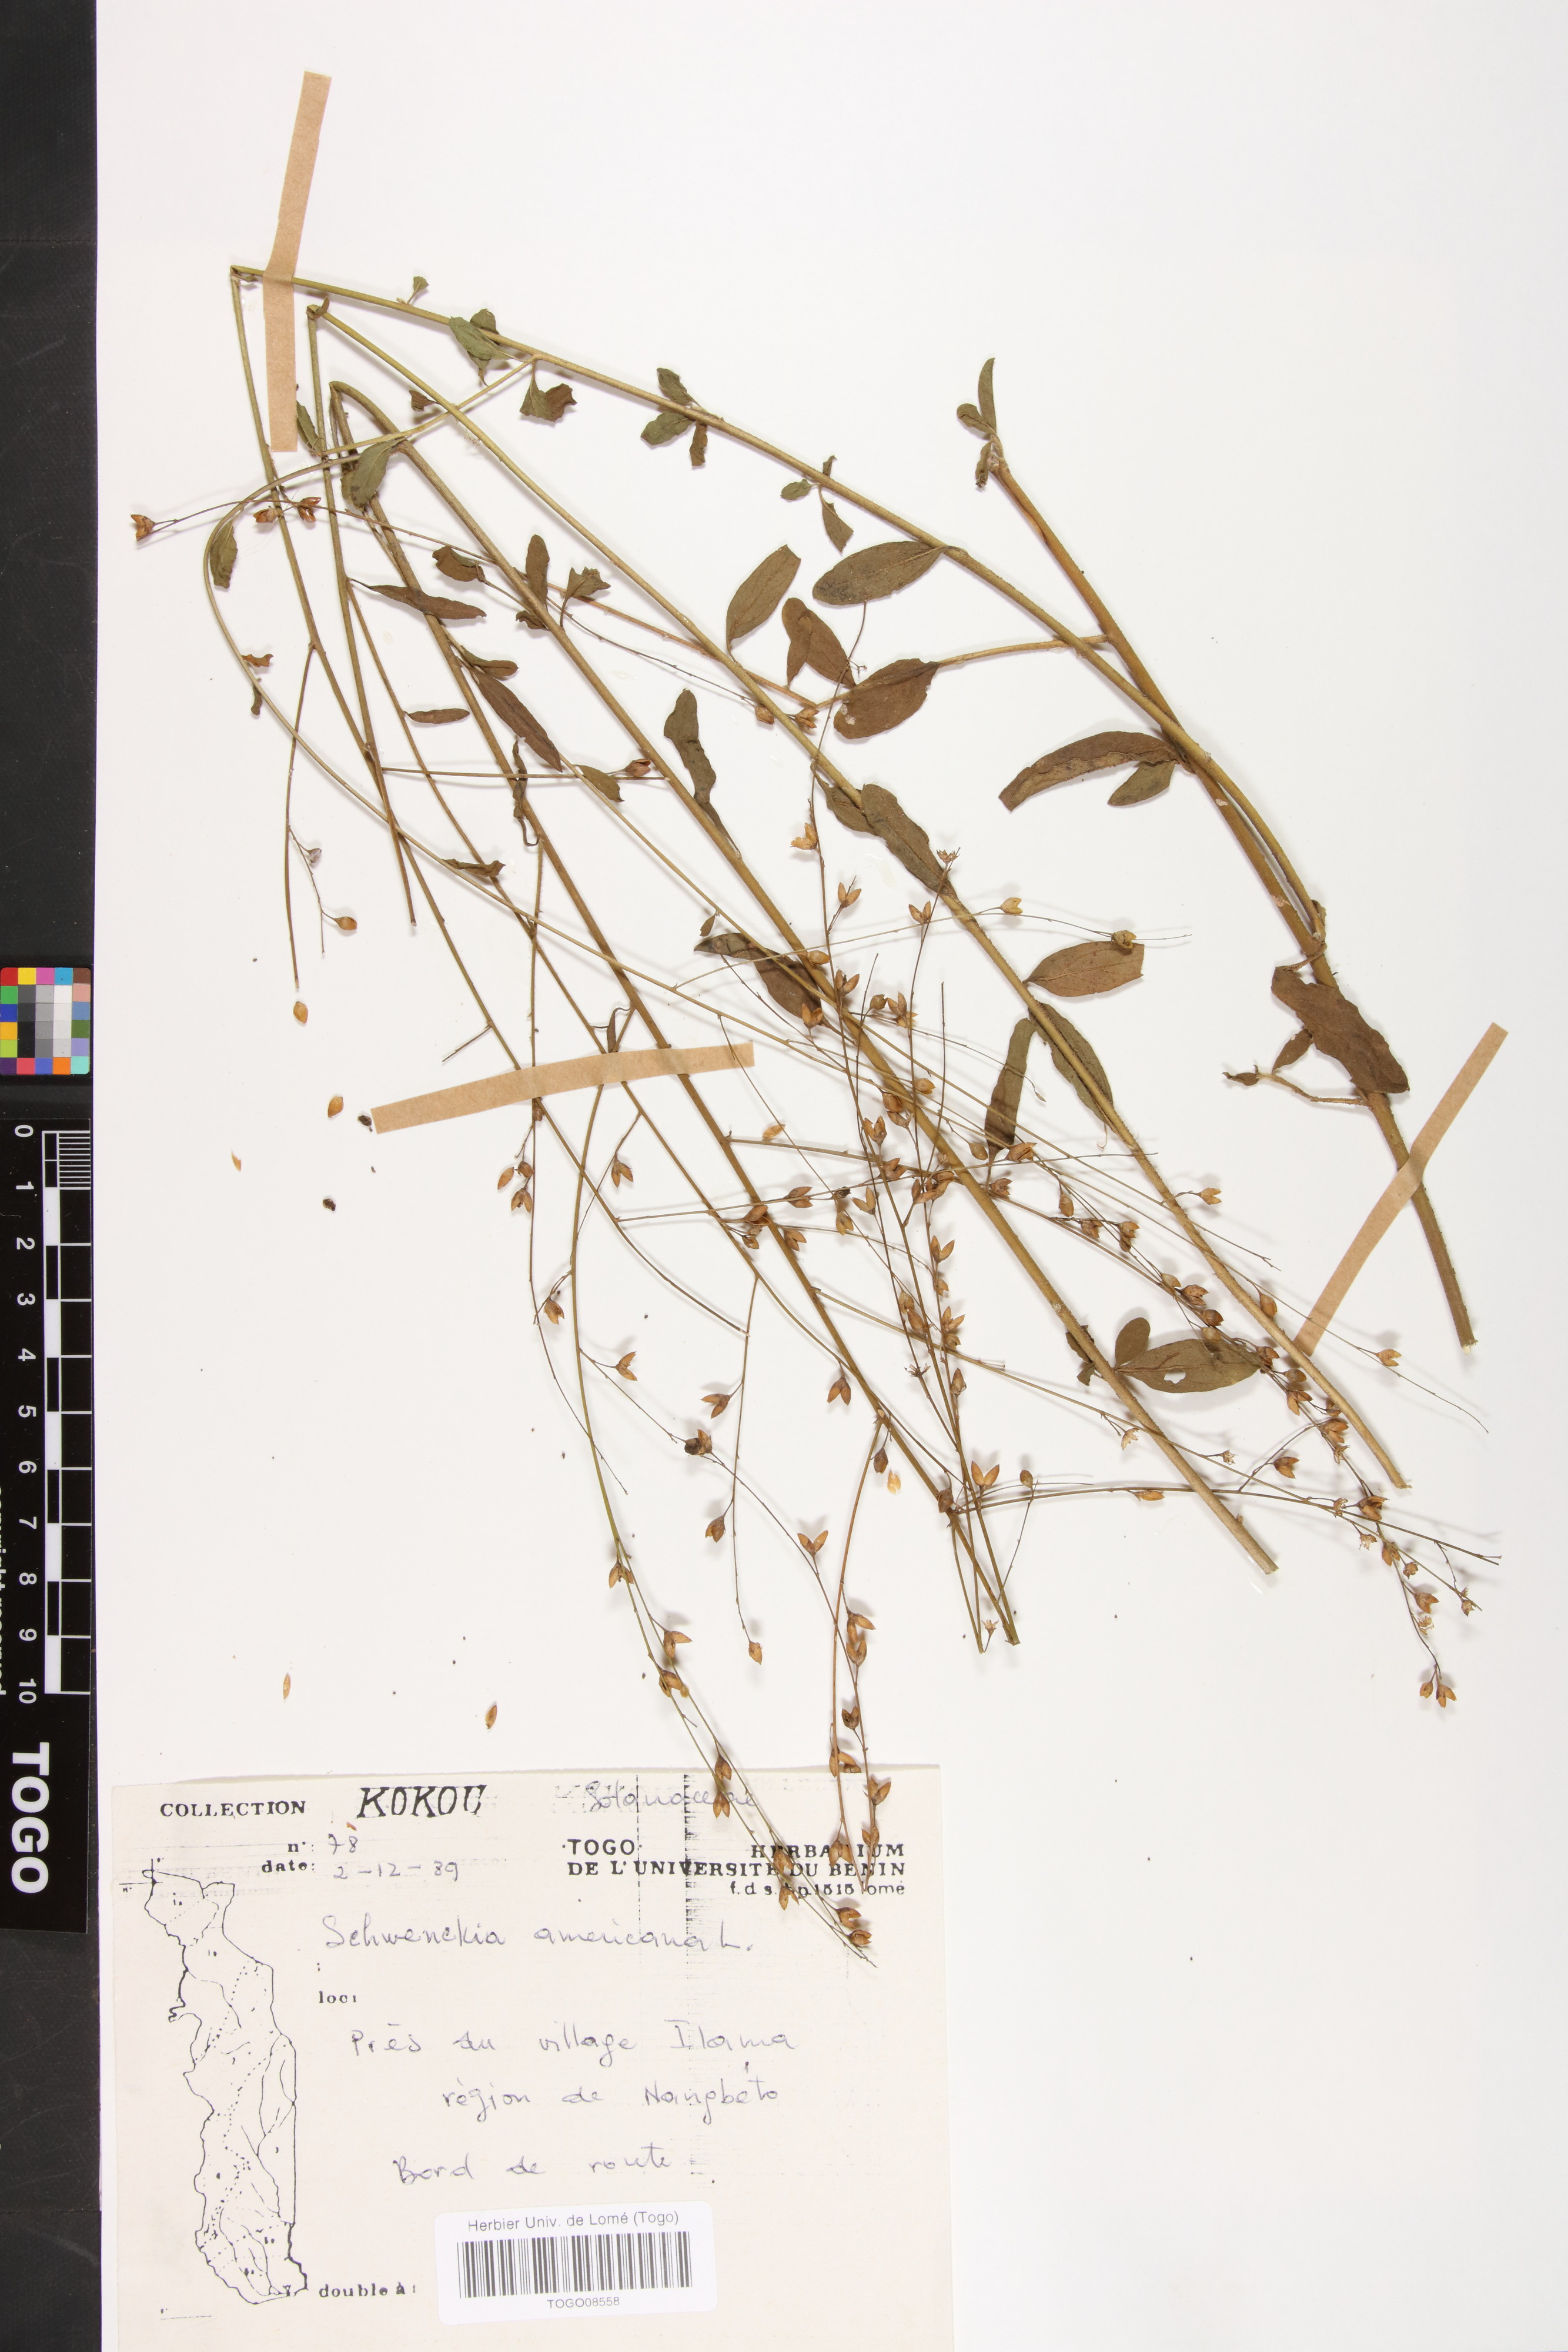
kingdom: Plantae
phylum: Tracheophyta
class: Magnoliopsida
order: Solanales
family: Solanaceae
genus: Schwenckia
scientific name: Schwenckia americana
